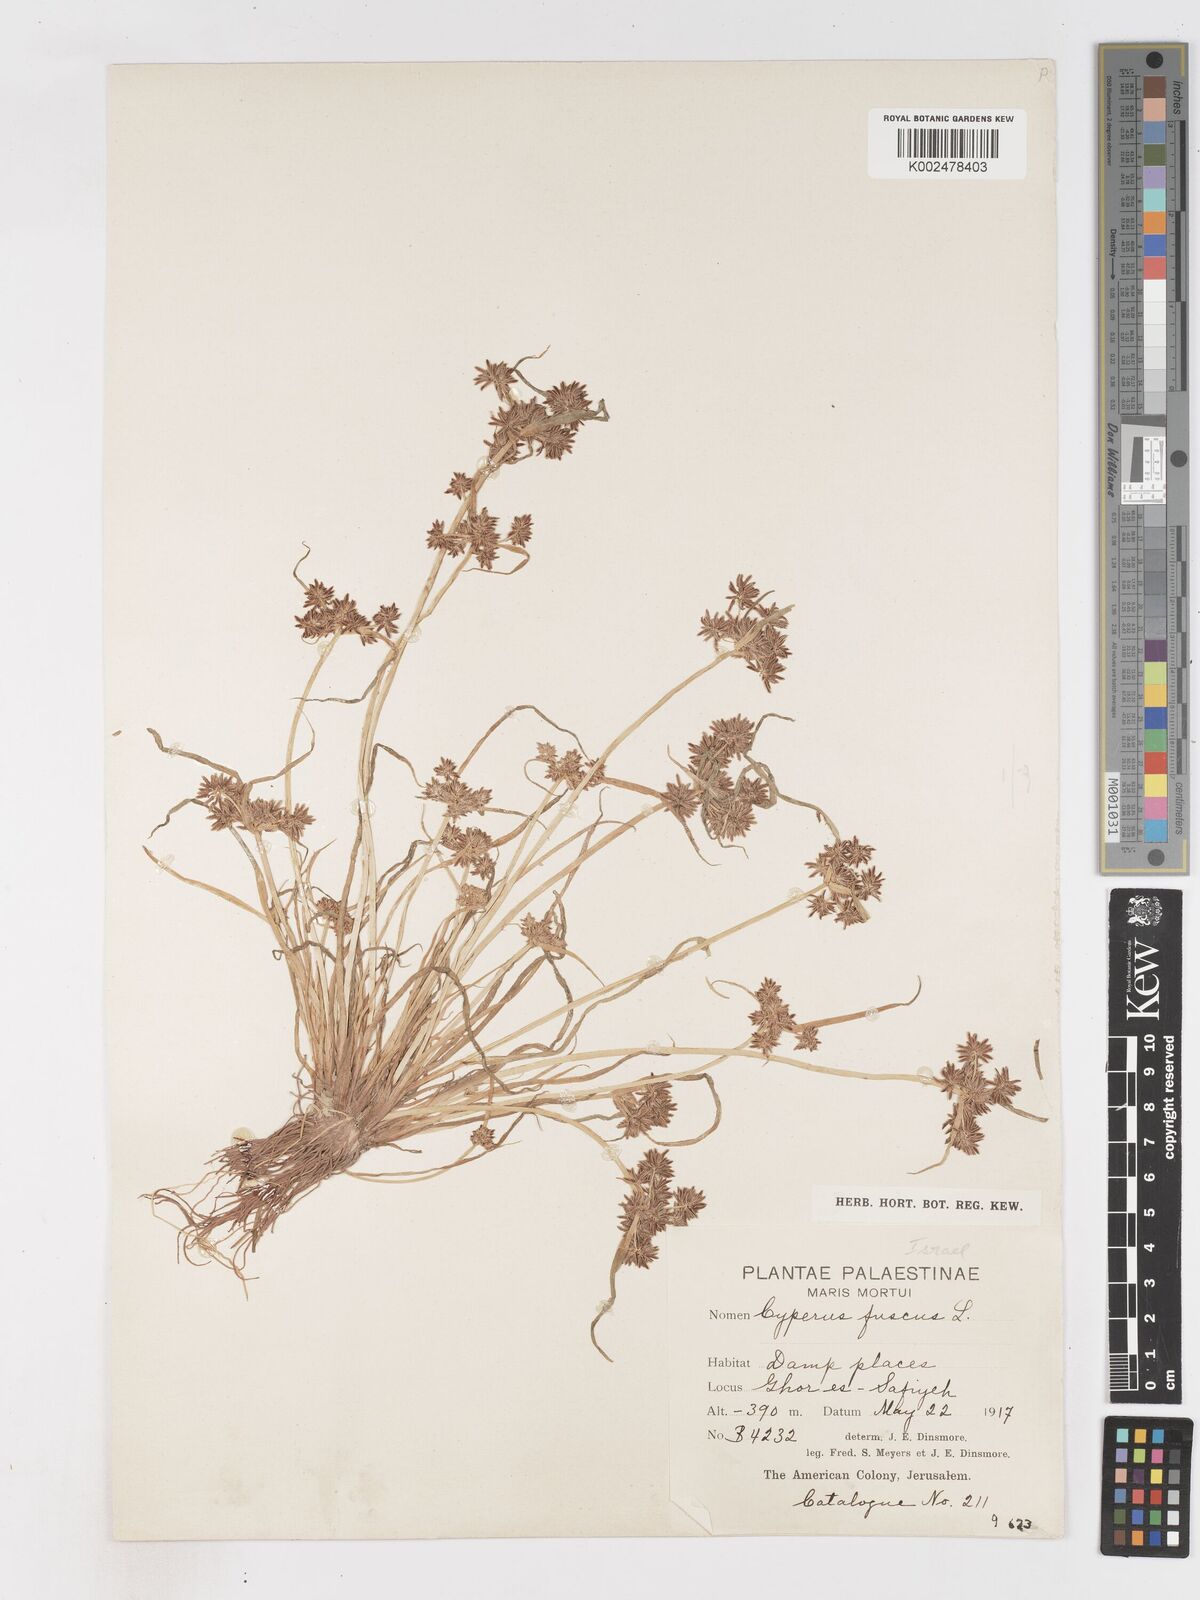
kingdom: Plantae
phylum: Tracheophyta
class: Liliopsida
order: Poales
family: Cyperaceae
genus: Cyperus
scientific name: Cyperus fuscus
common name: Brown galingale
